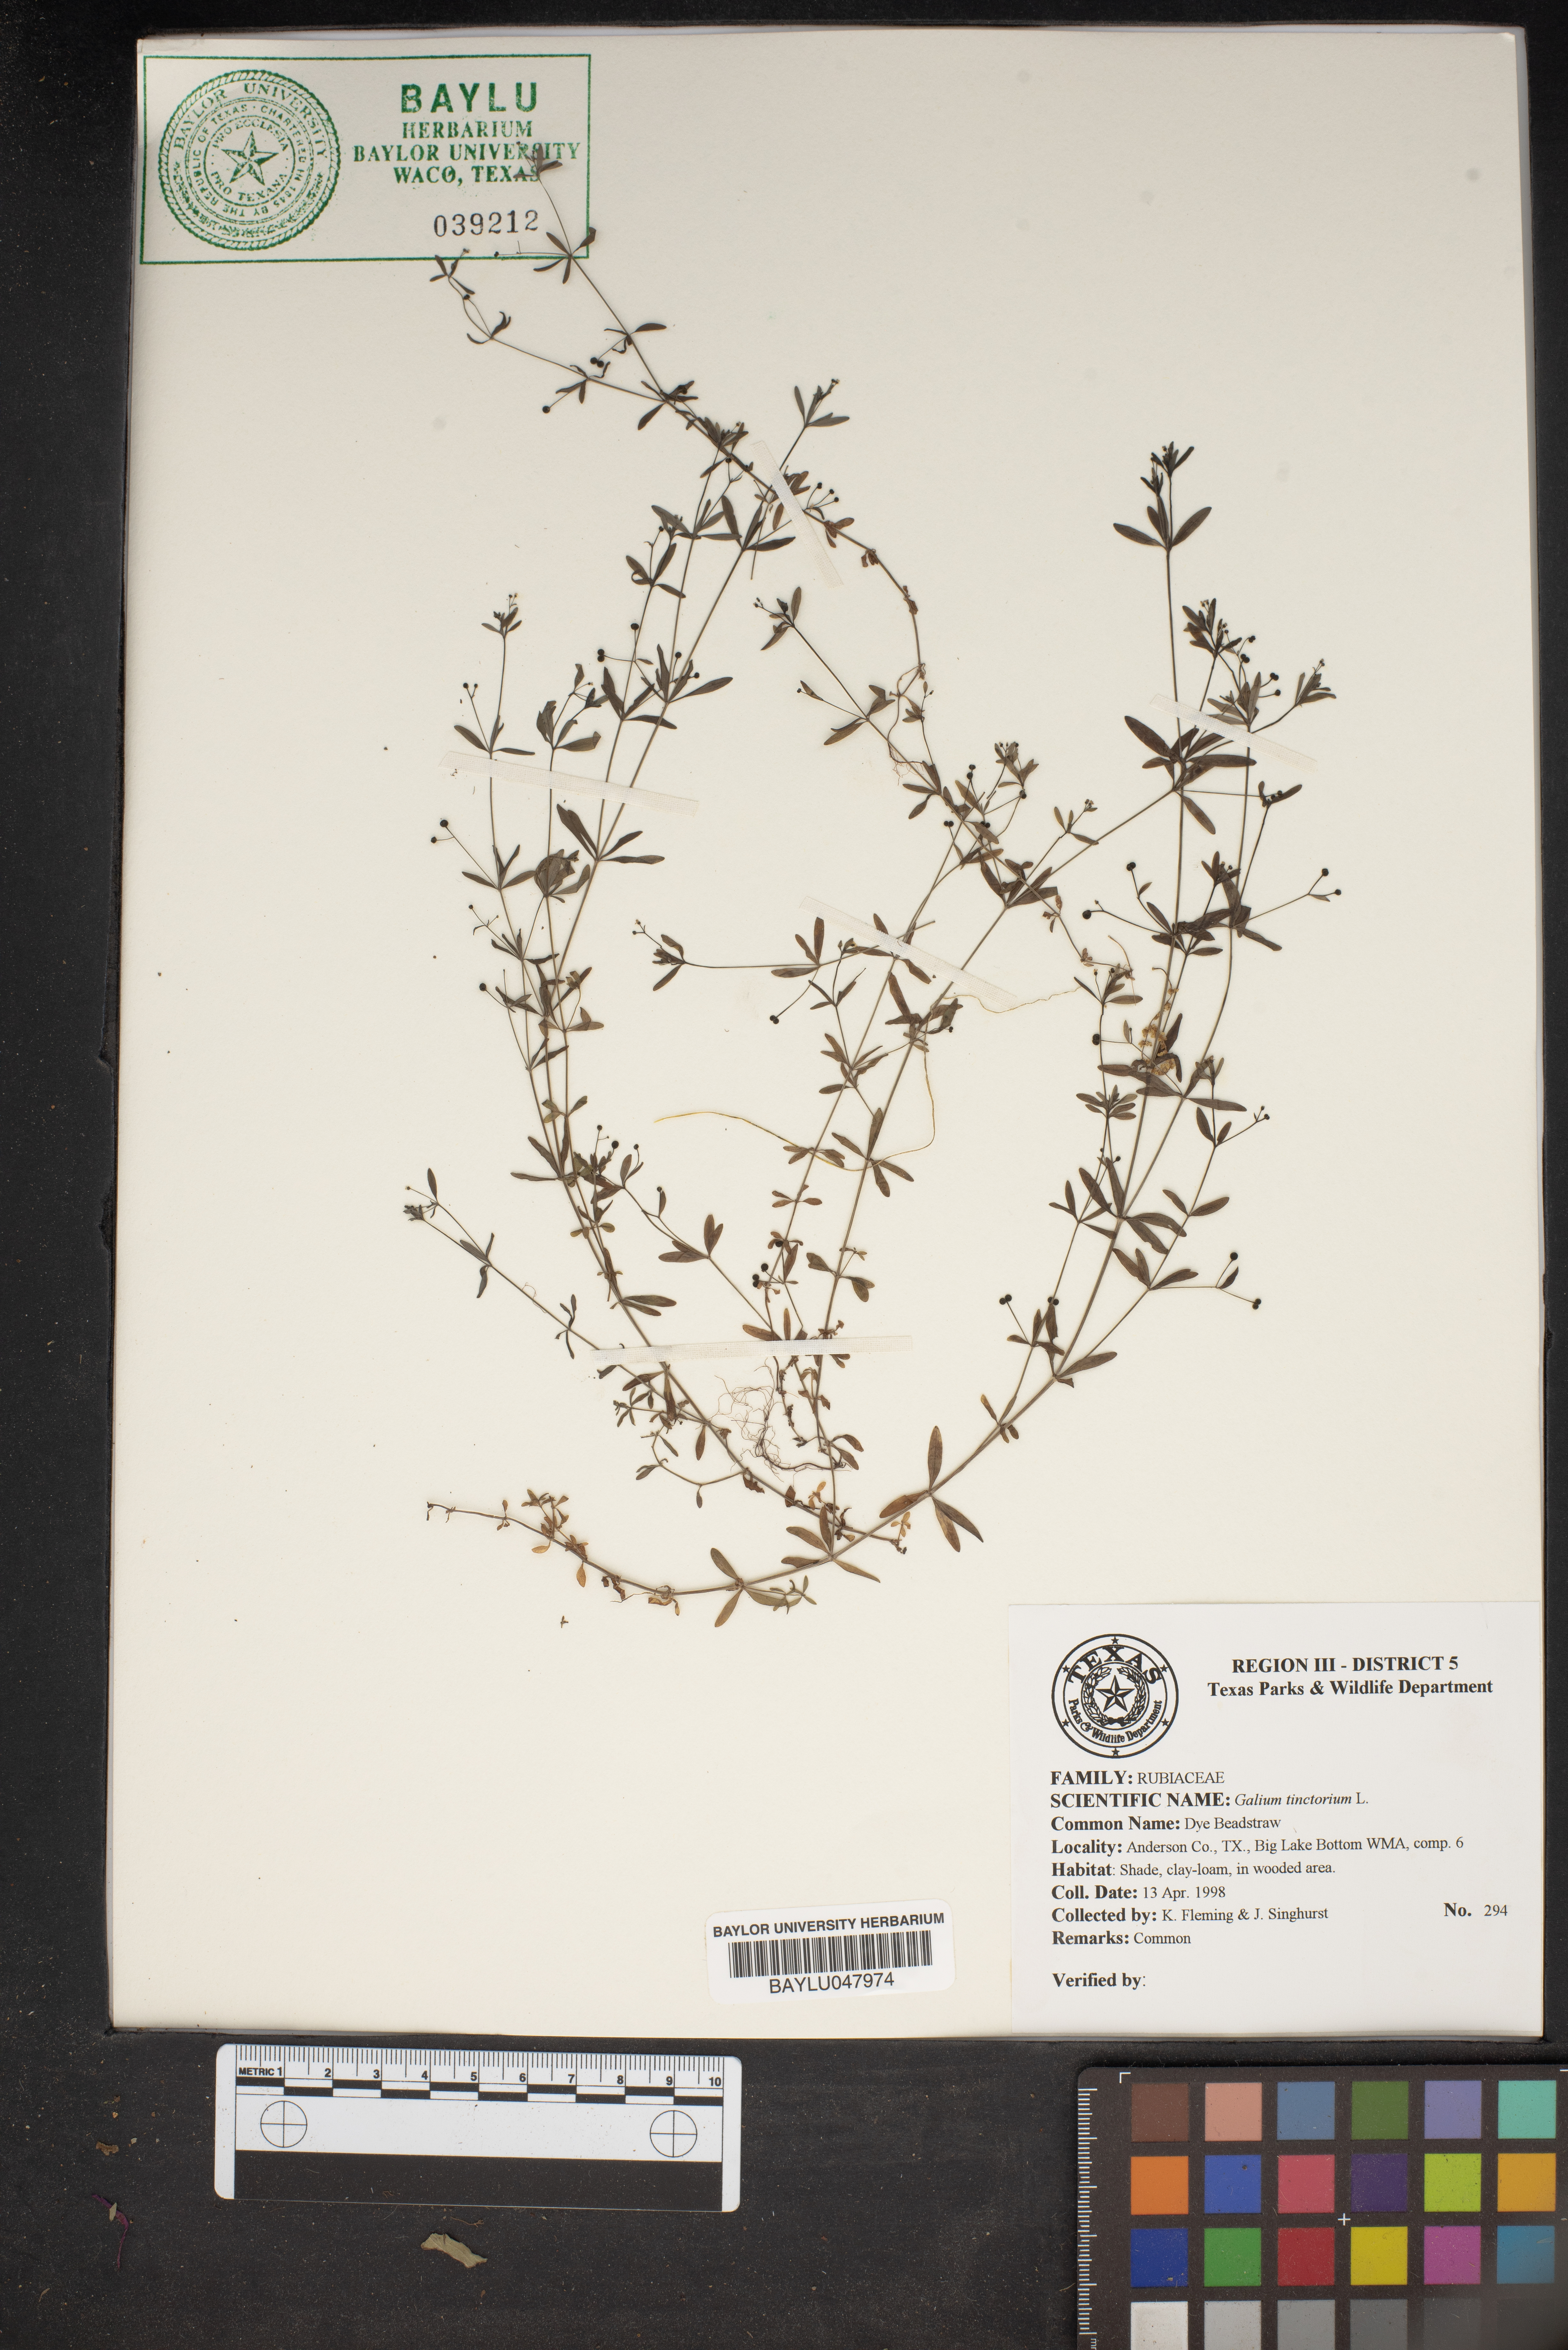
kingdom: Plantae
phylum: Tracheophyta
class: Magnoliopsida
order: Gentianales
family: Rubiaceae
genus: Asperula
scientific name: Asperula tinctoria
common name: Dyer's woodruff
